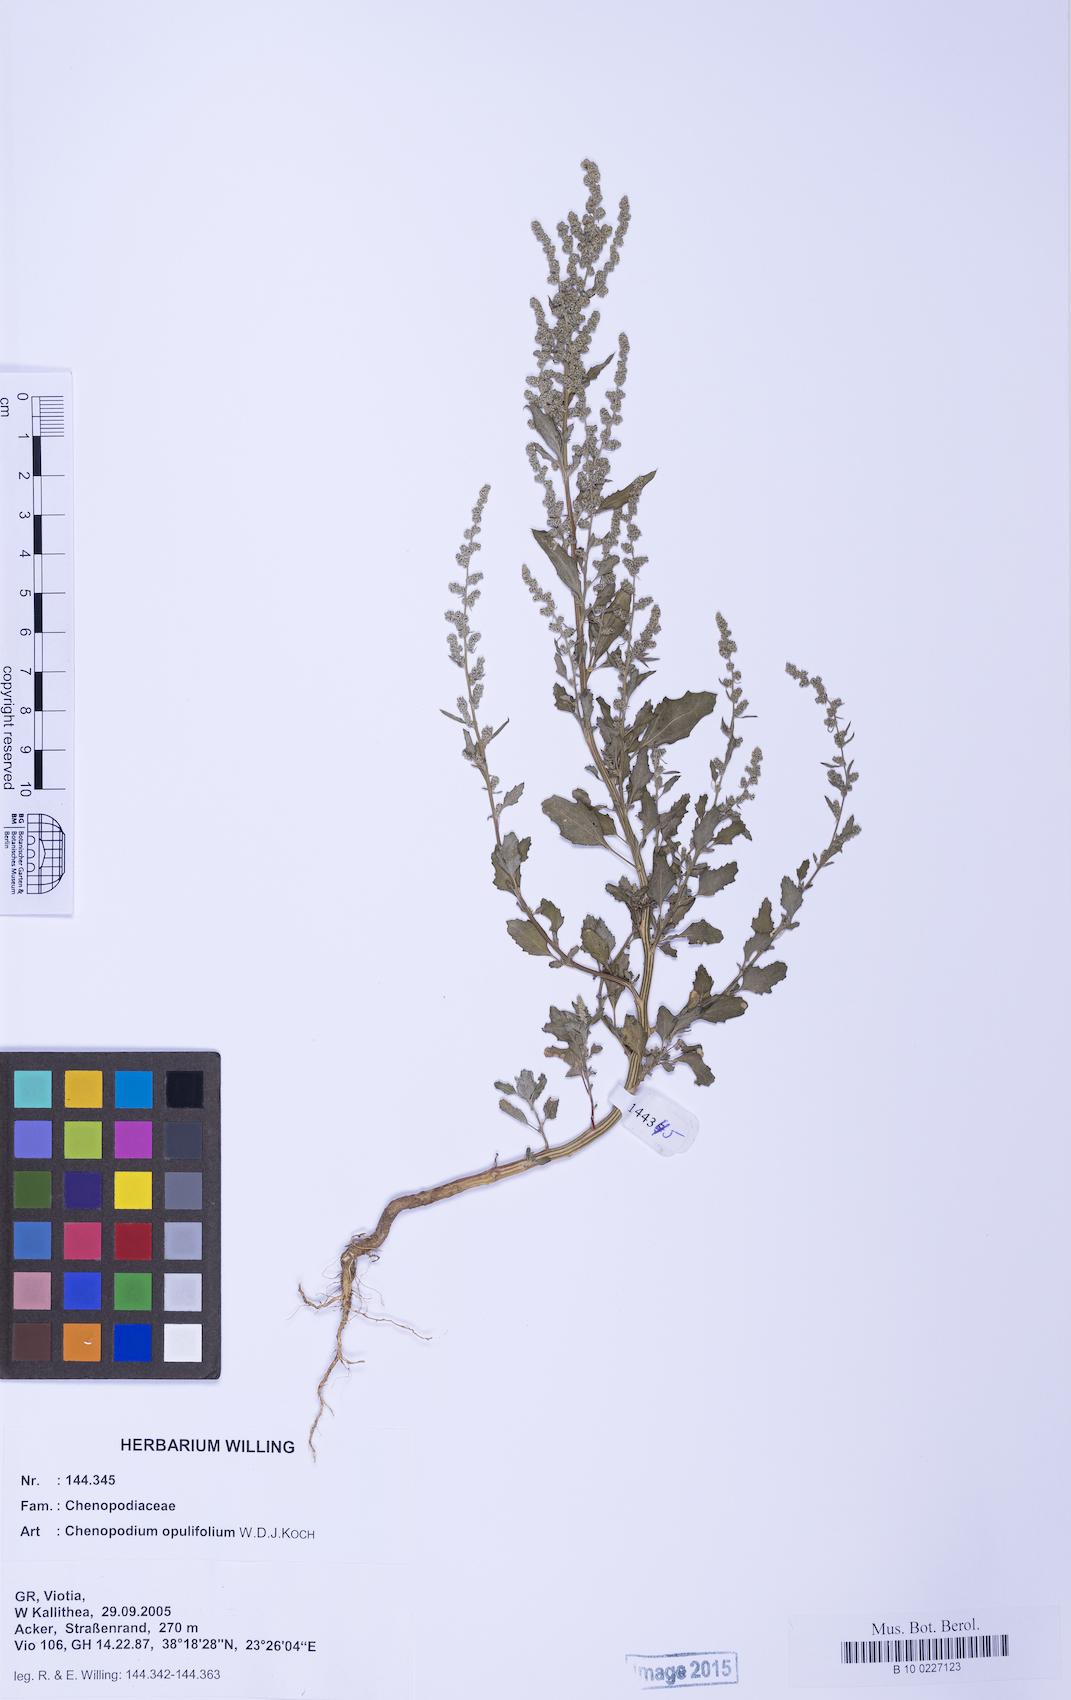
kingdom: Plantae
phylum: Tracheophyta
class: Magnoliopsida
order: Caryophyllales
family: Amaranthaceae
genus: Chenopodium
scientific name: Chenopodium album
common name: Fat-hen
